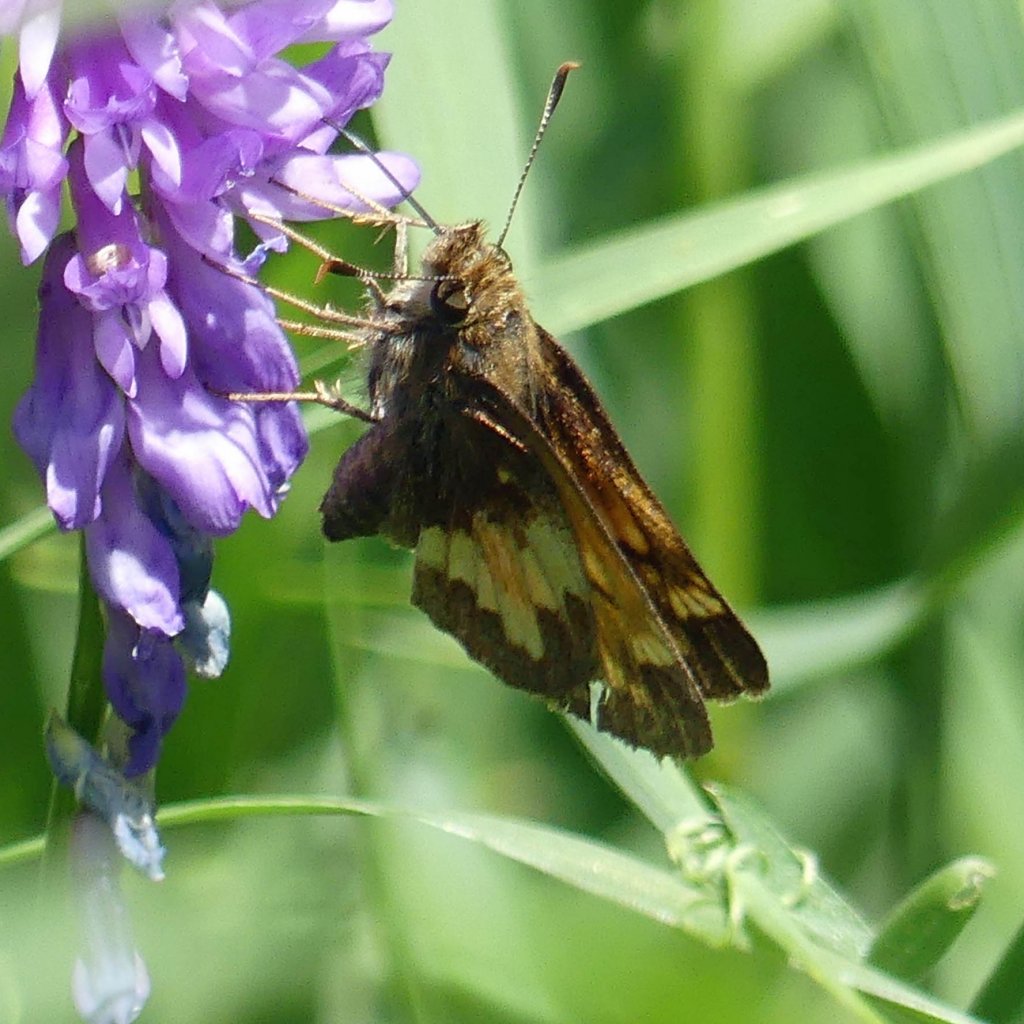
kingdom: Animalia
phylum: Arthropoda
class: Insecta
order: Lepidoptera
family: Hesperiidae
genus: Lon
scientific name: Lon hobomok
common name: Hobomok Skipper
